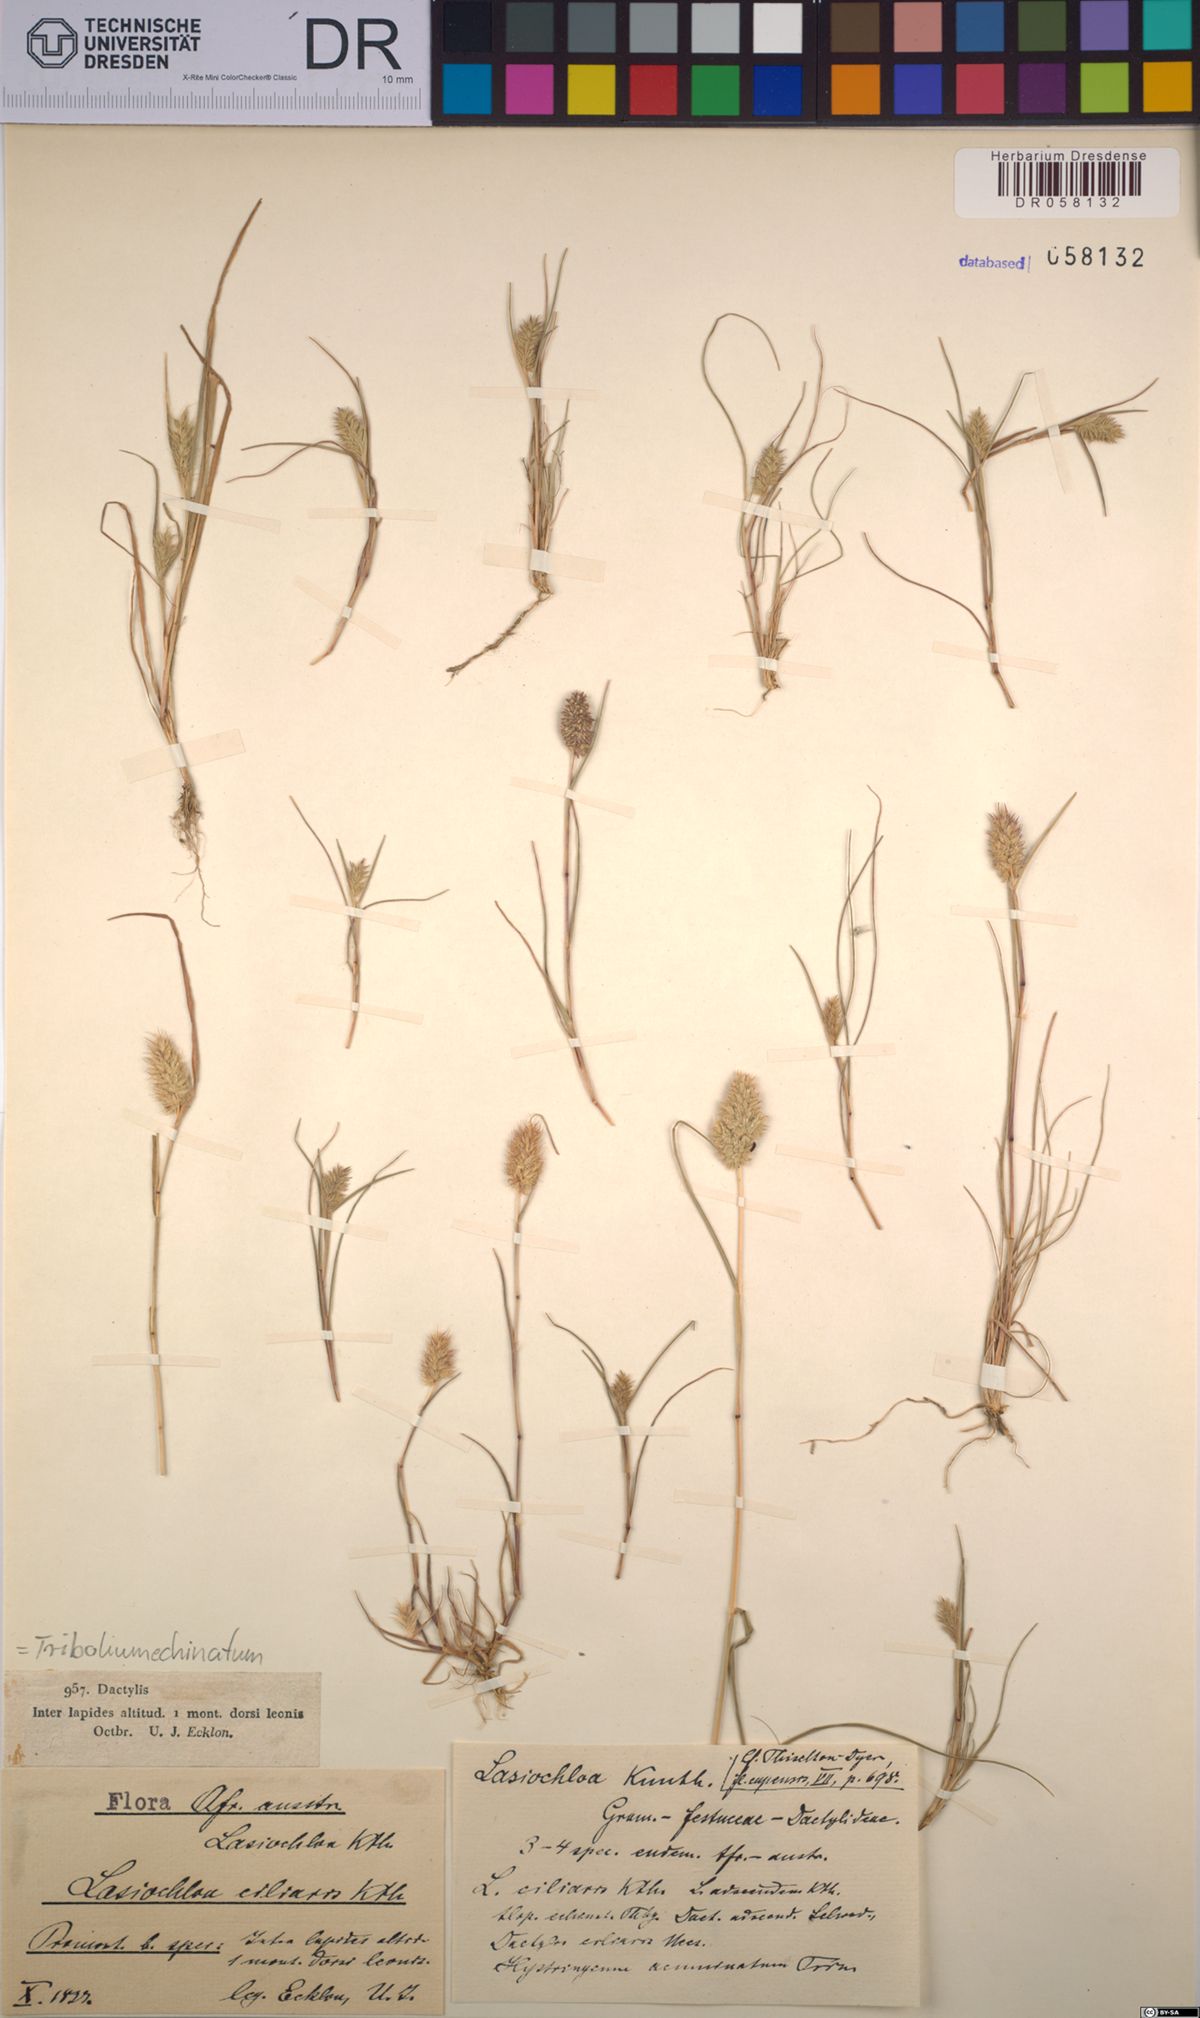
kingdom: Plantae
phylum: Tracheophyta
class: Liliopsida
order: Poales
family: Poaceae
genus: Tribolium
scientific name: Tribolium echinatum
